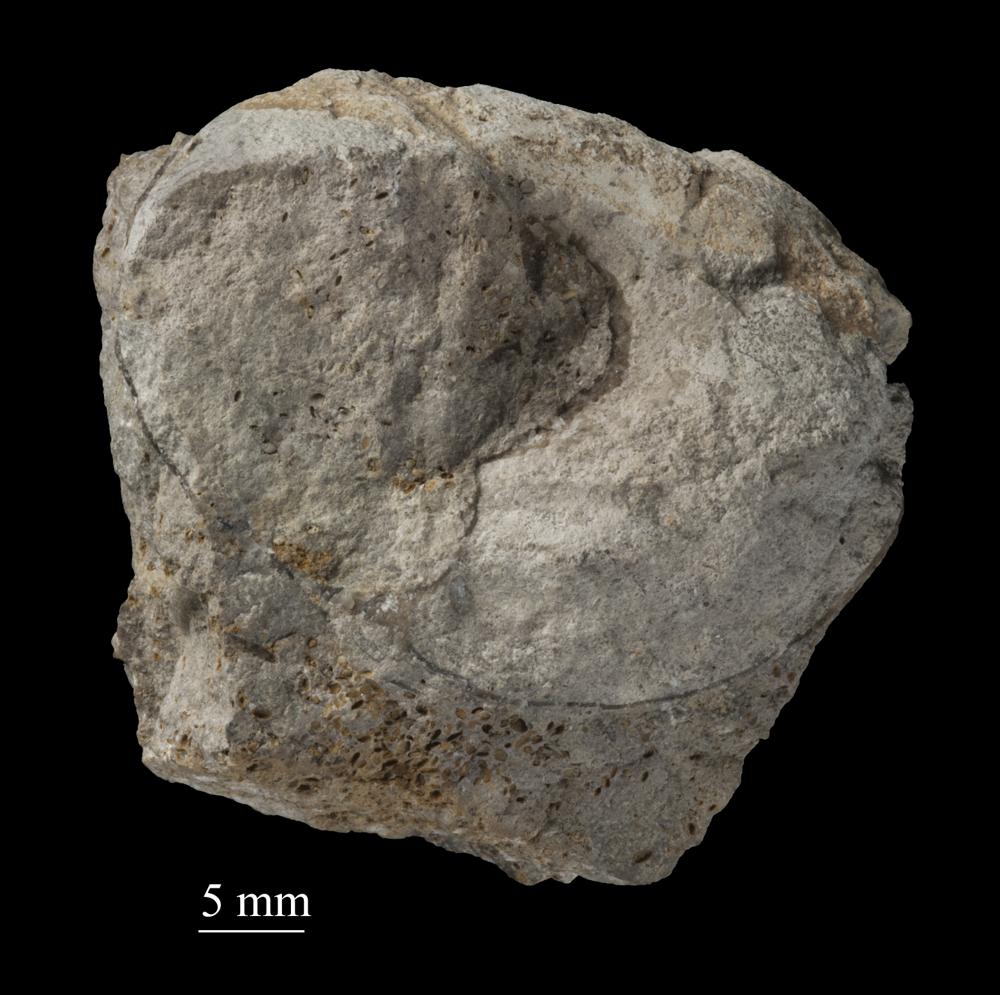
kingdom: Animalia
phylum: Mollusca
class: Gastropoda
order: Trochida
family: Trochidae
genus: Trochus
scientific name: Trochus ellipticus
